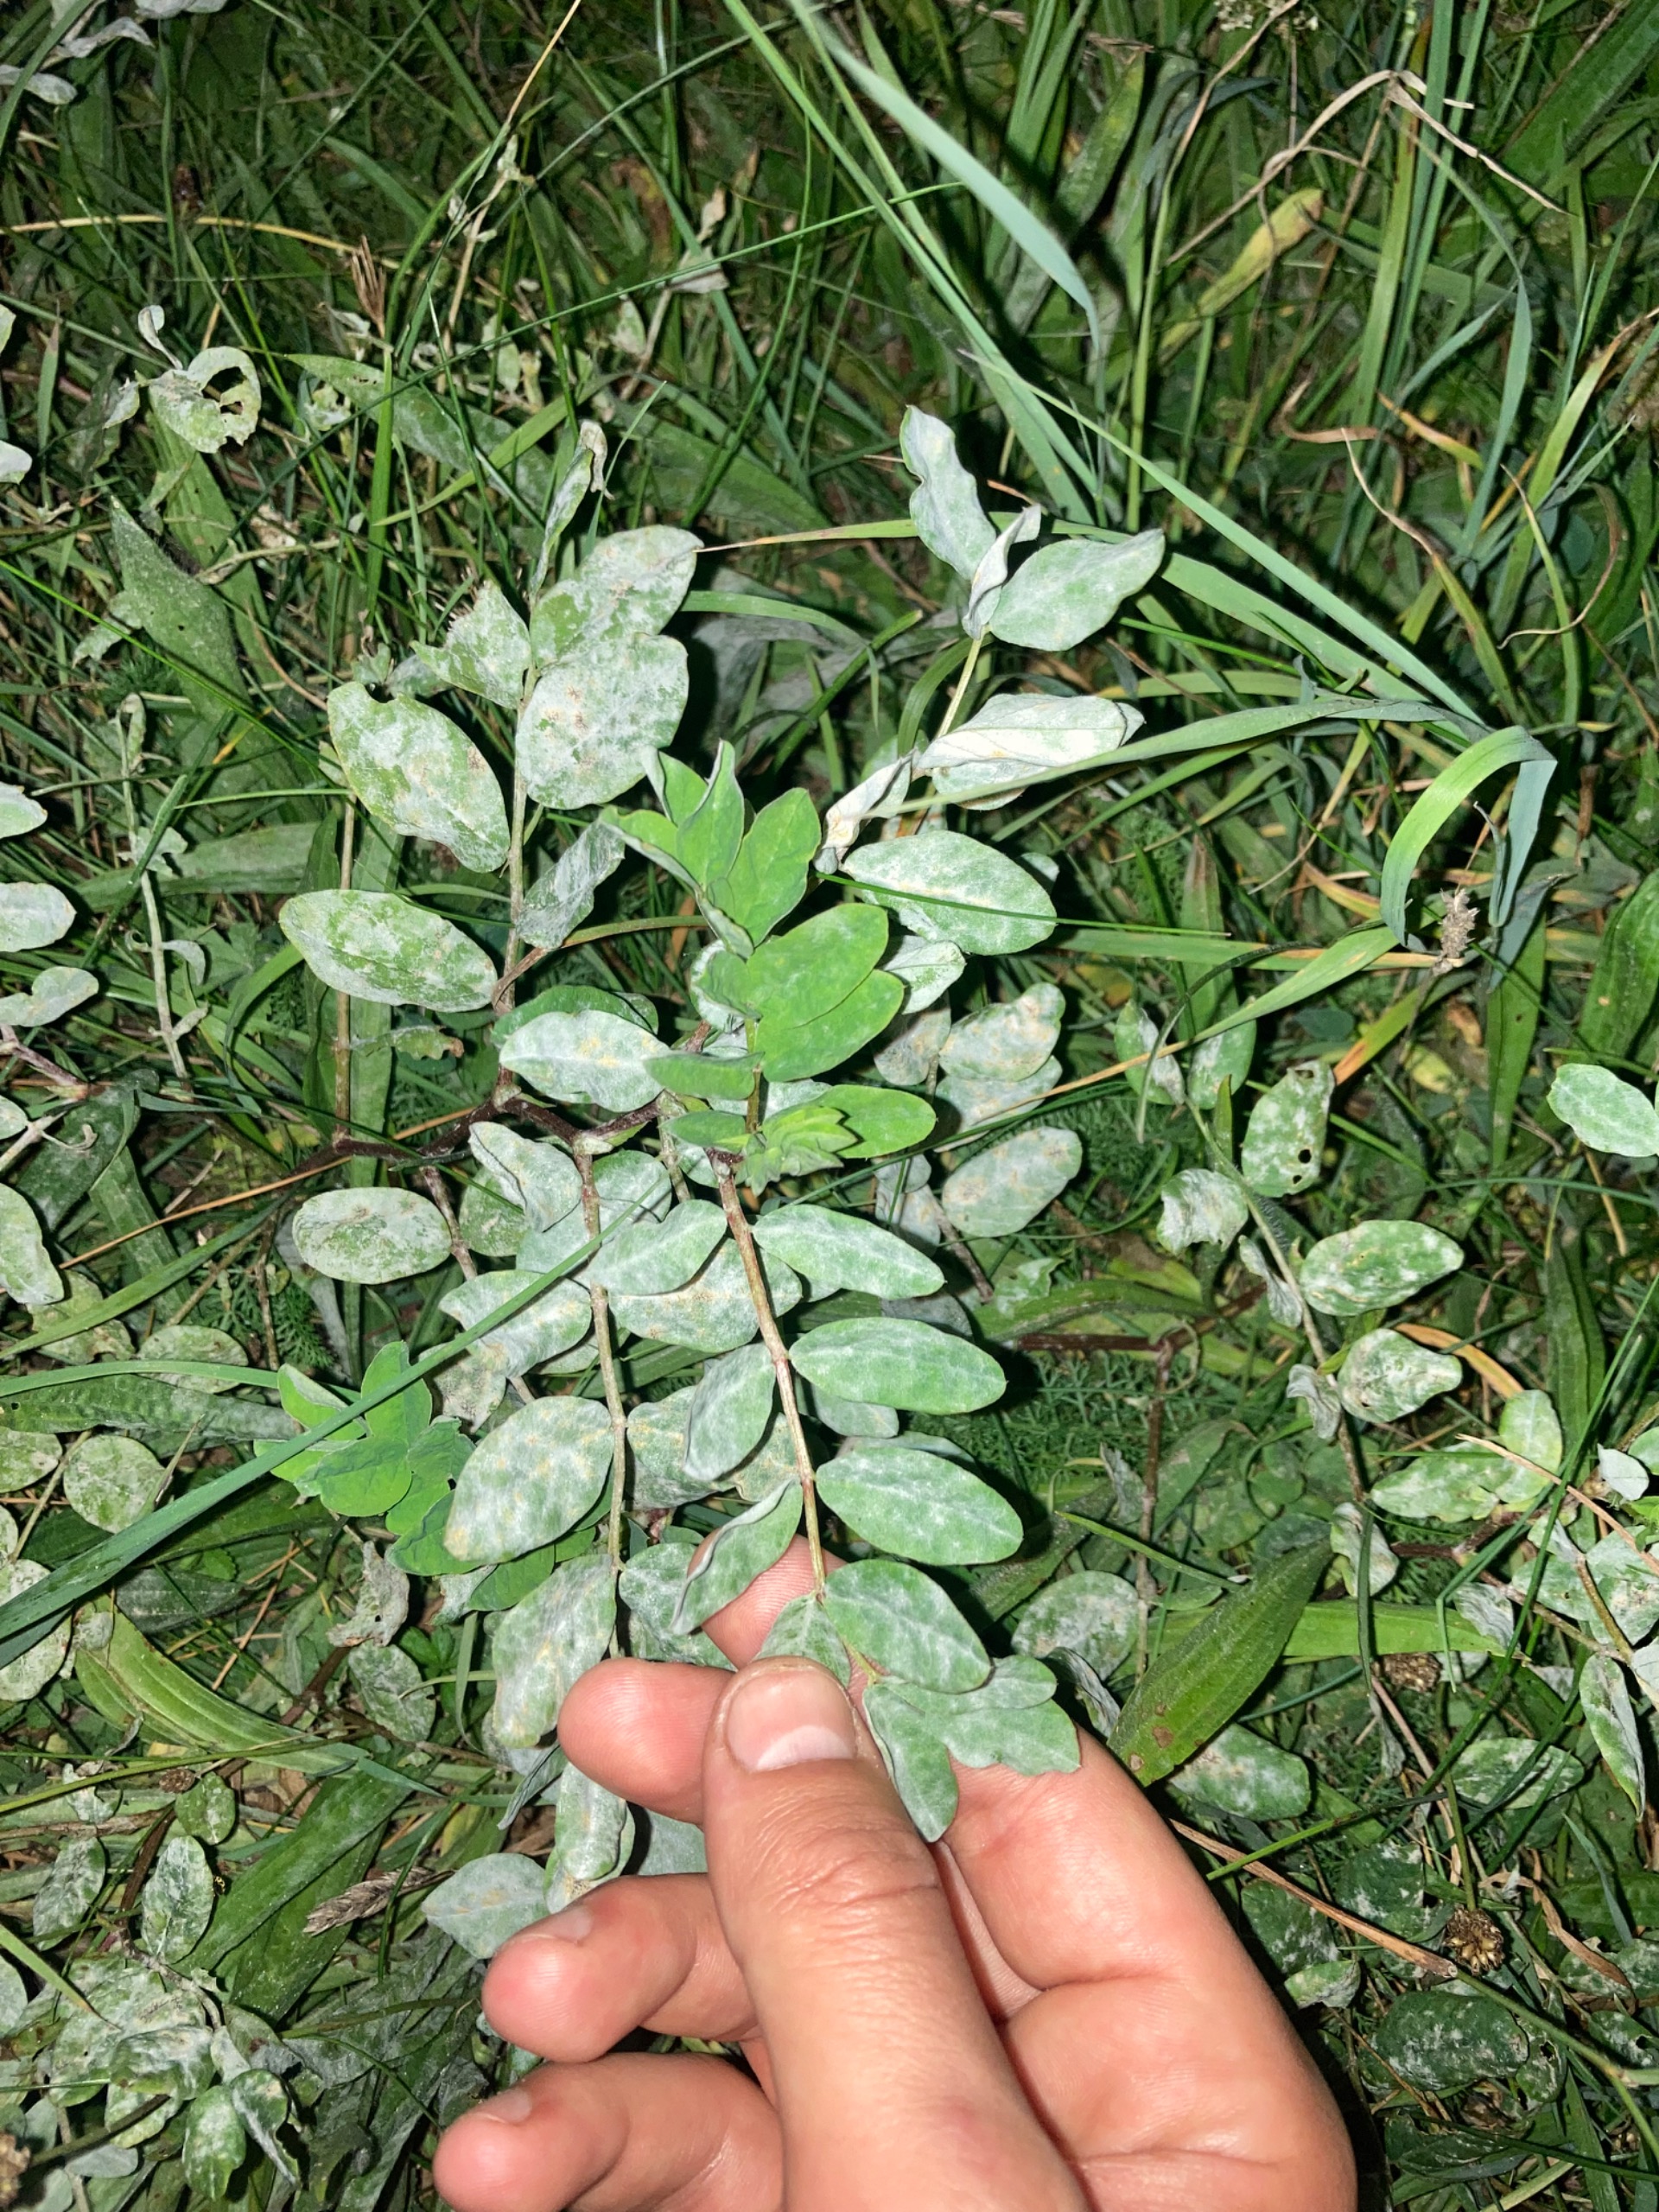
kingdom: Plantae
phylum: Tracheophyta
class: Magnoliopsida
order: Fabales
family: Fabaceae
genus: Astragalus
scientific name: Astragalus glycyphyllos
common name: Sød astragel
